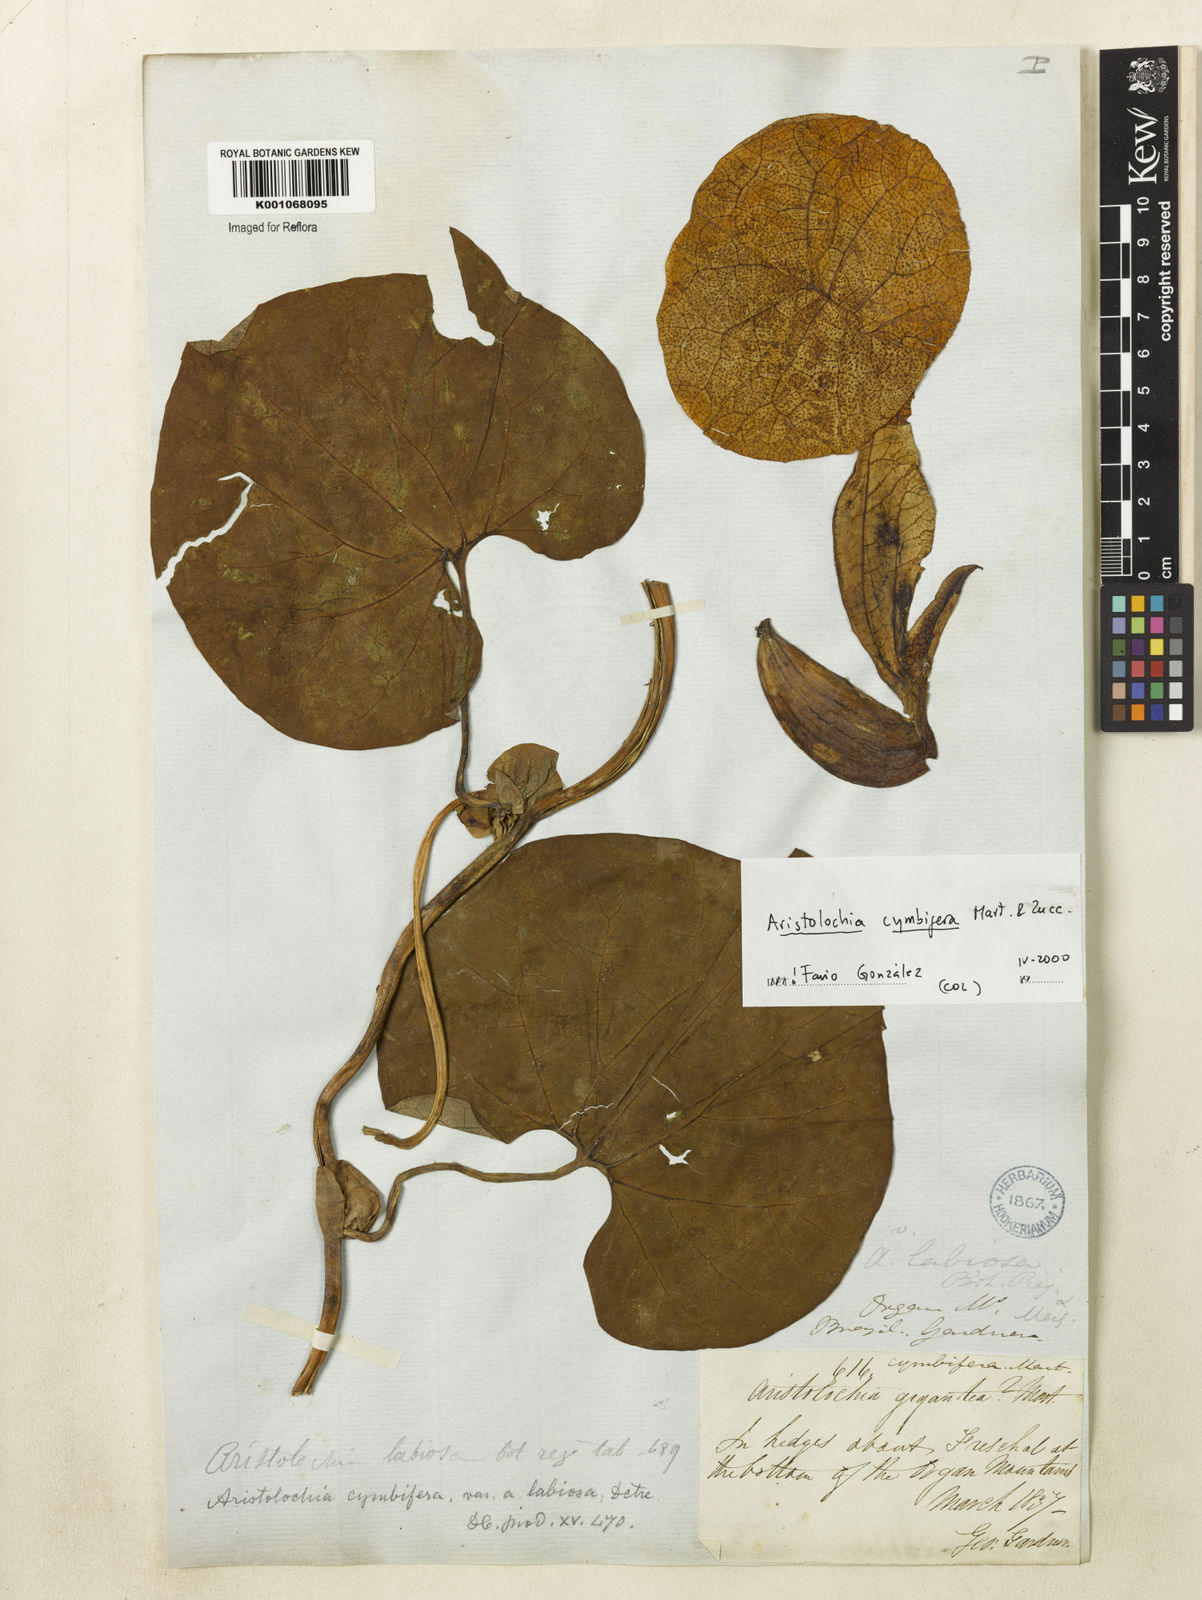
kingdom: Plantae
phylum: Tracheophyta
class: Magnoliopsida
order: Piperales
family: Aristolochiaceae
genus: Aristolochia
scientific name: Aristolochia cymbifera
